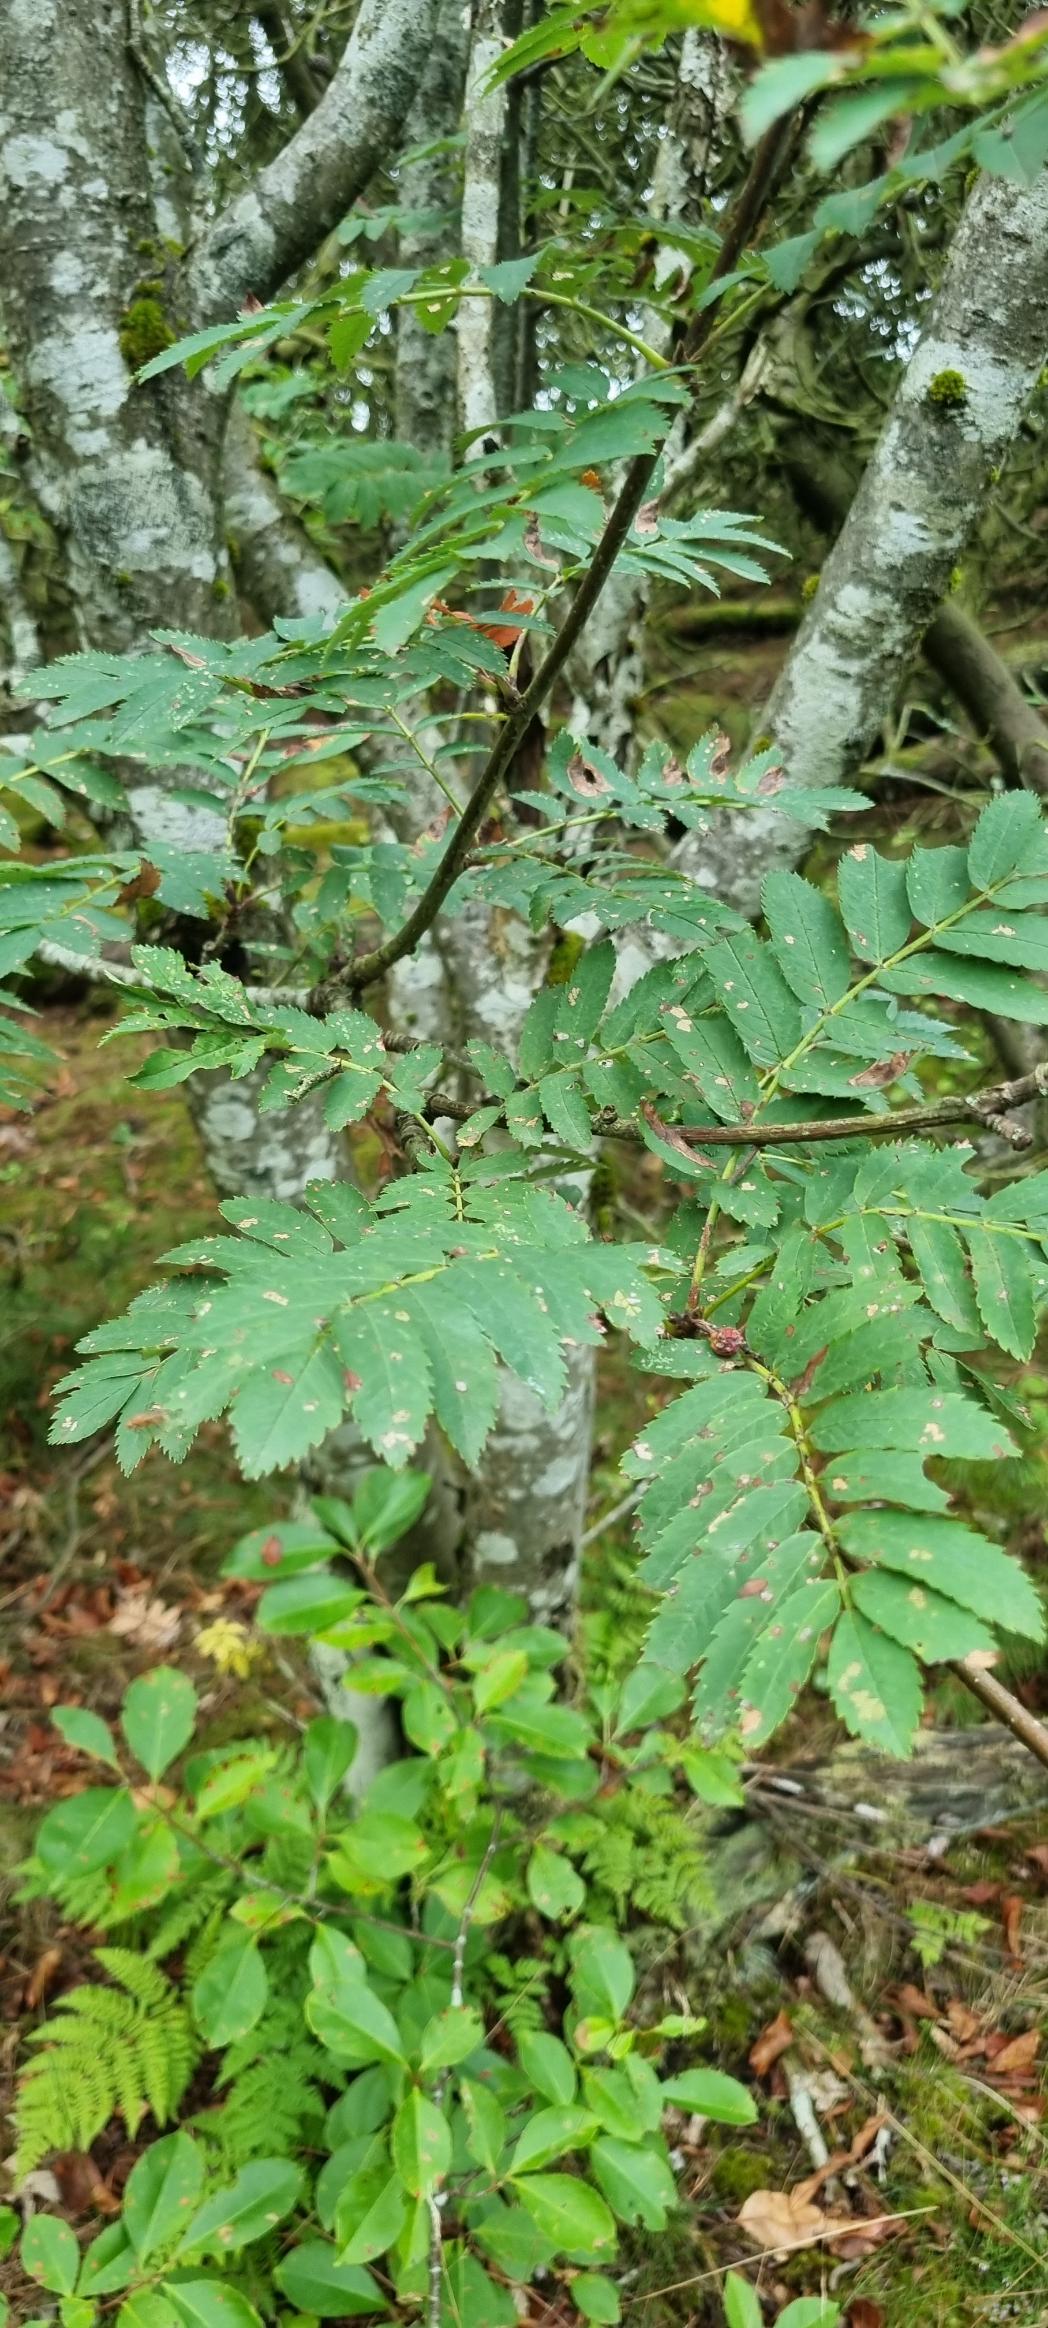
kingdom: Plantae
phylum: Tracheophyta
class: Magnoliopsida
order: Rosales
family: Rosaceae
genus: Sorbus
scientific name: Sorbus aucuparia
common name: Almindelig røn
